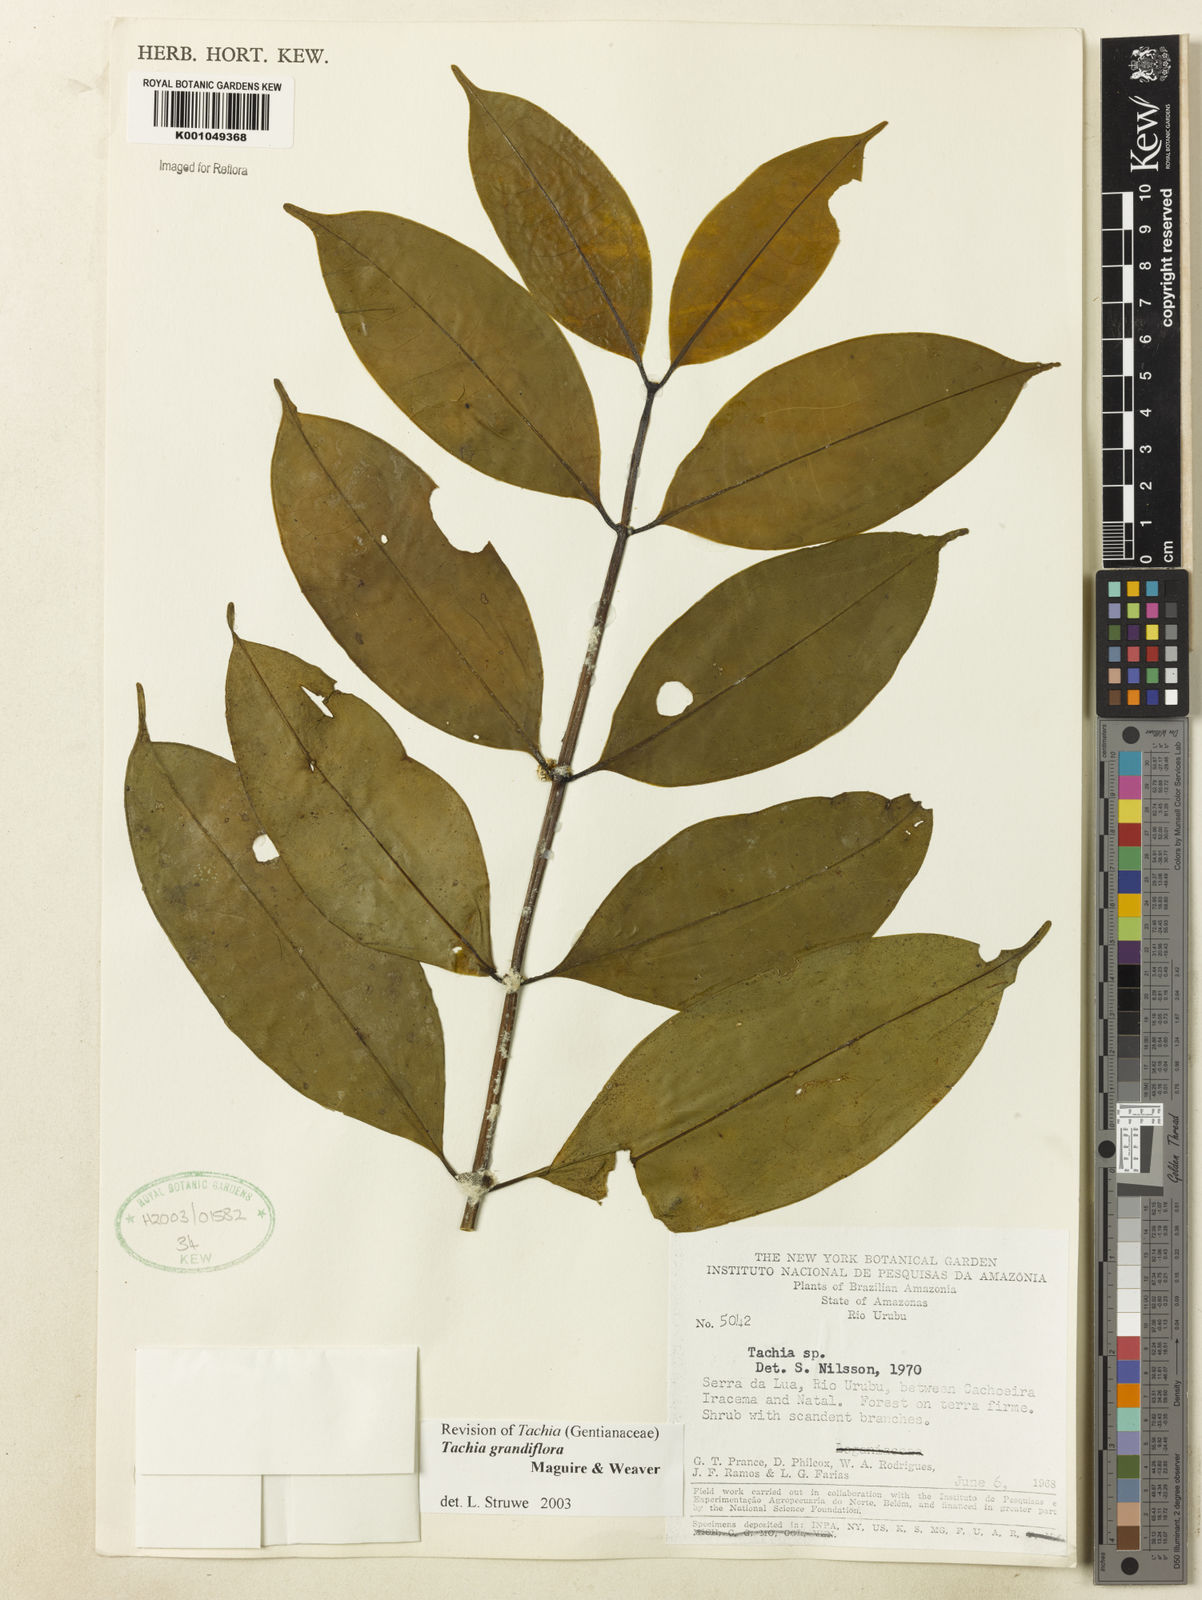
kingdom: Plantae
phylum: Tracheophyta
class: Magnoliopsida
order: Gentianales
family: Gentianaceae
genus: Tachia
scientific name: Tachia grandiflora
